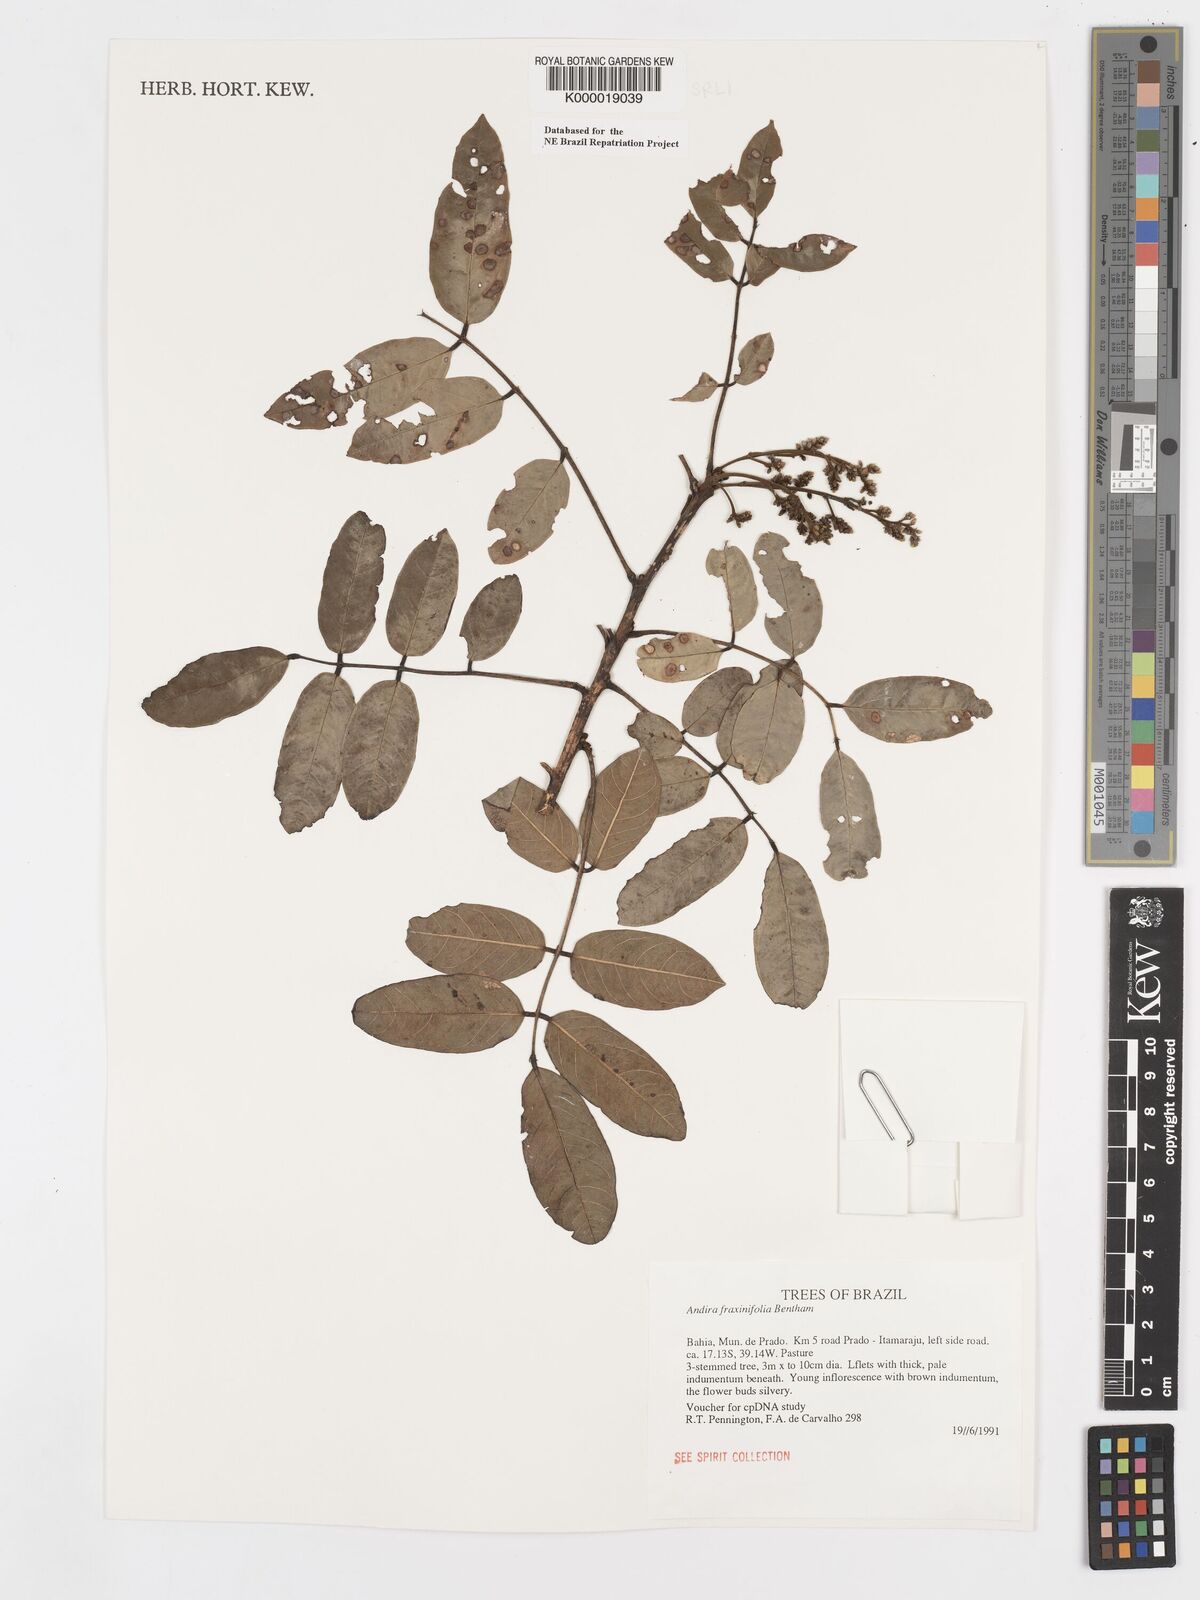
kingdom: Plantae
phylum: Tracheophyta
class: Magnoliopsida
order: Fabales
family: Fabaceae
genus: Andira
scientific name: Andira fraxinifolia
